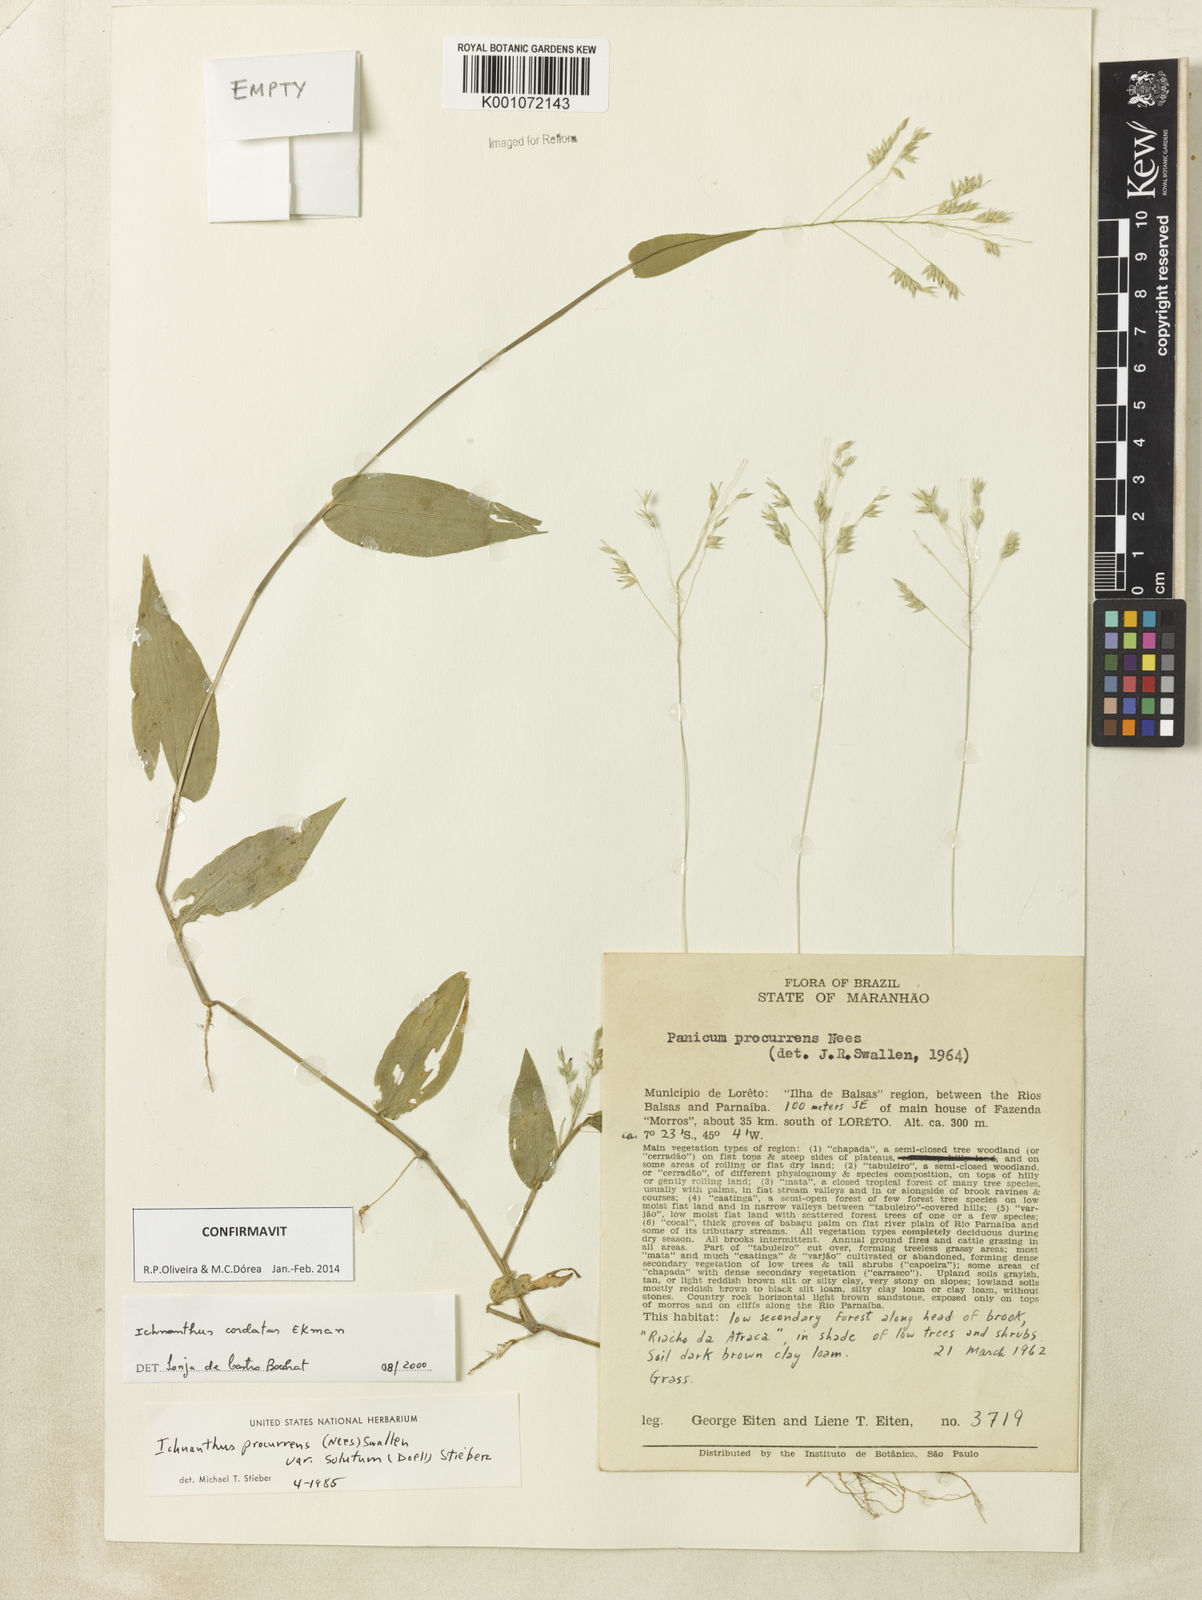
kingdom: Plantae
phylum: Tracheophyta
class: Liliopsida
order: Poales
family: Poaceae
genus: Oedochloa
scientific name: Oedochloa mayarensis
